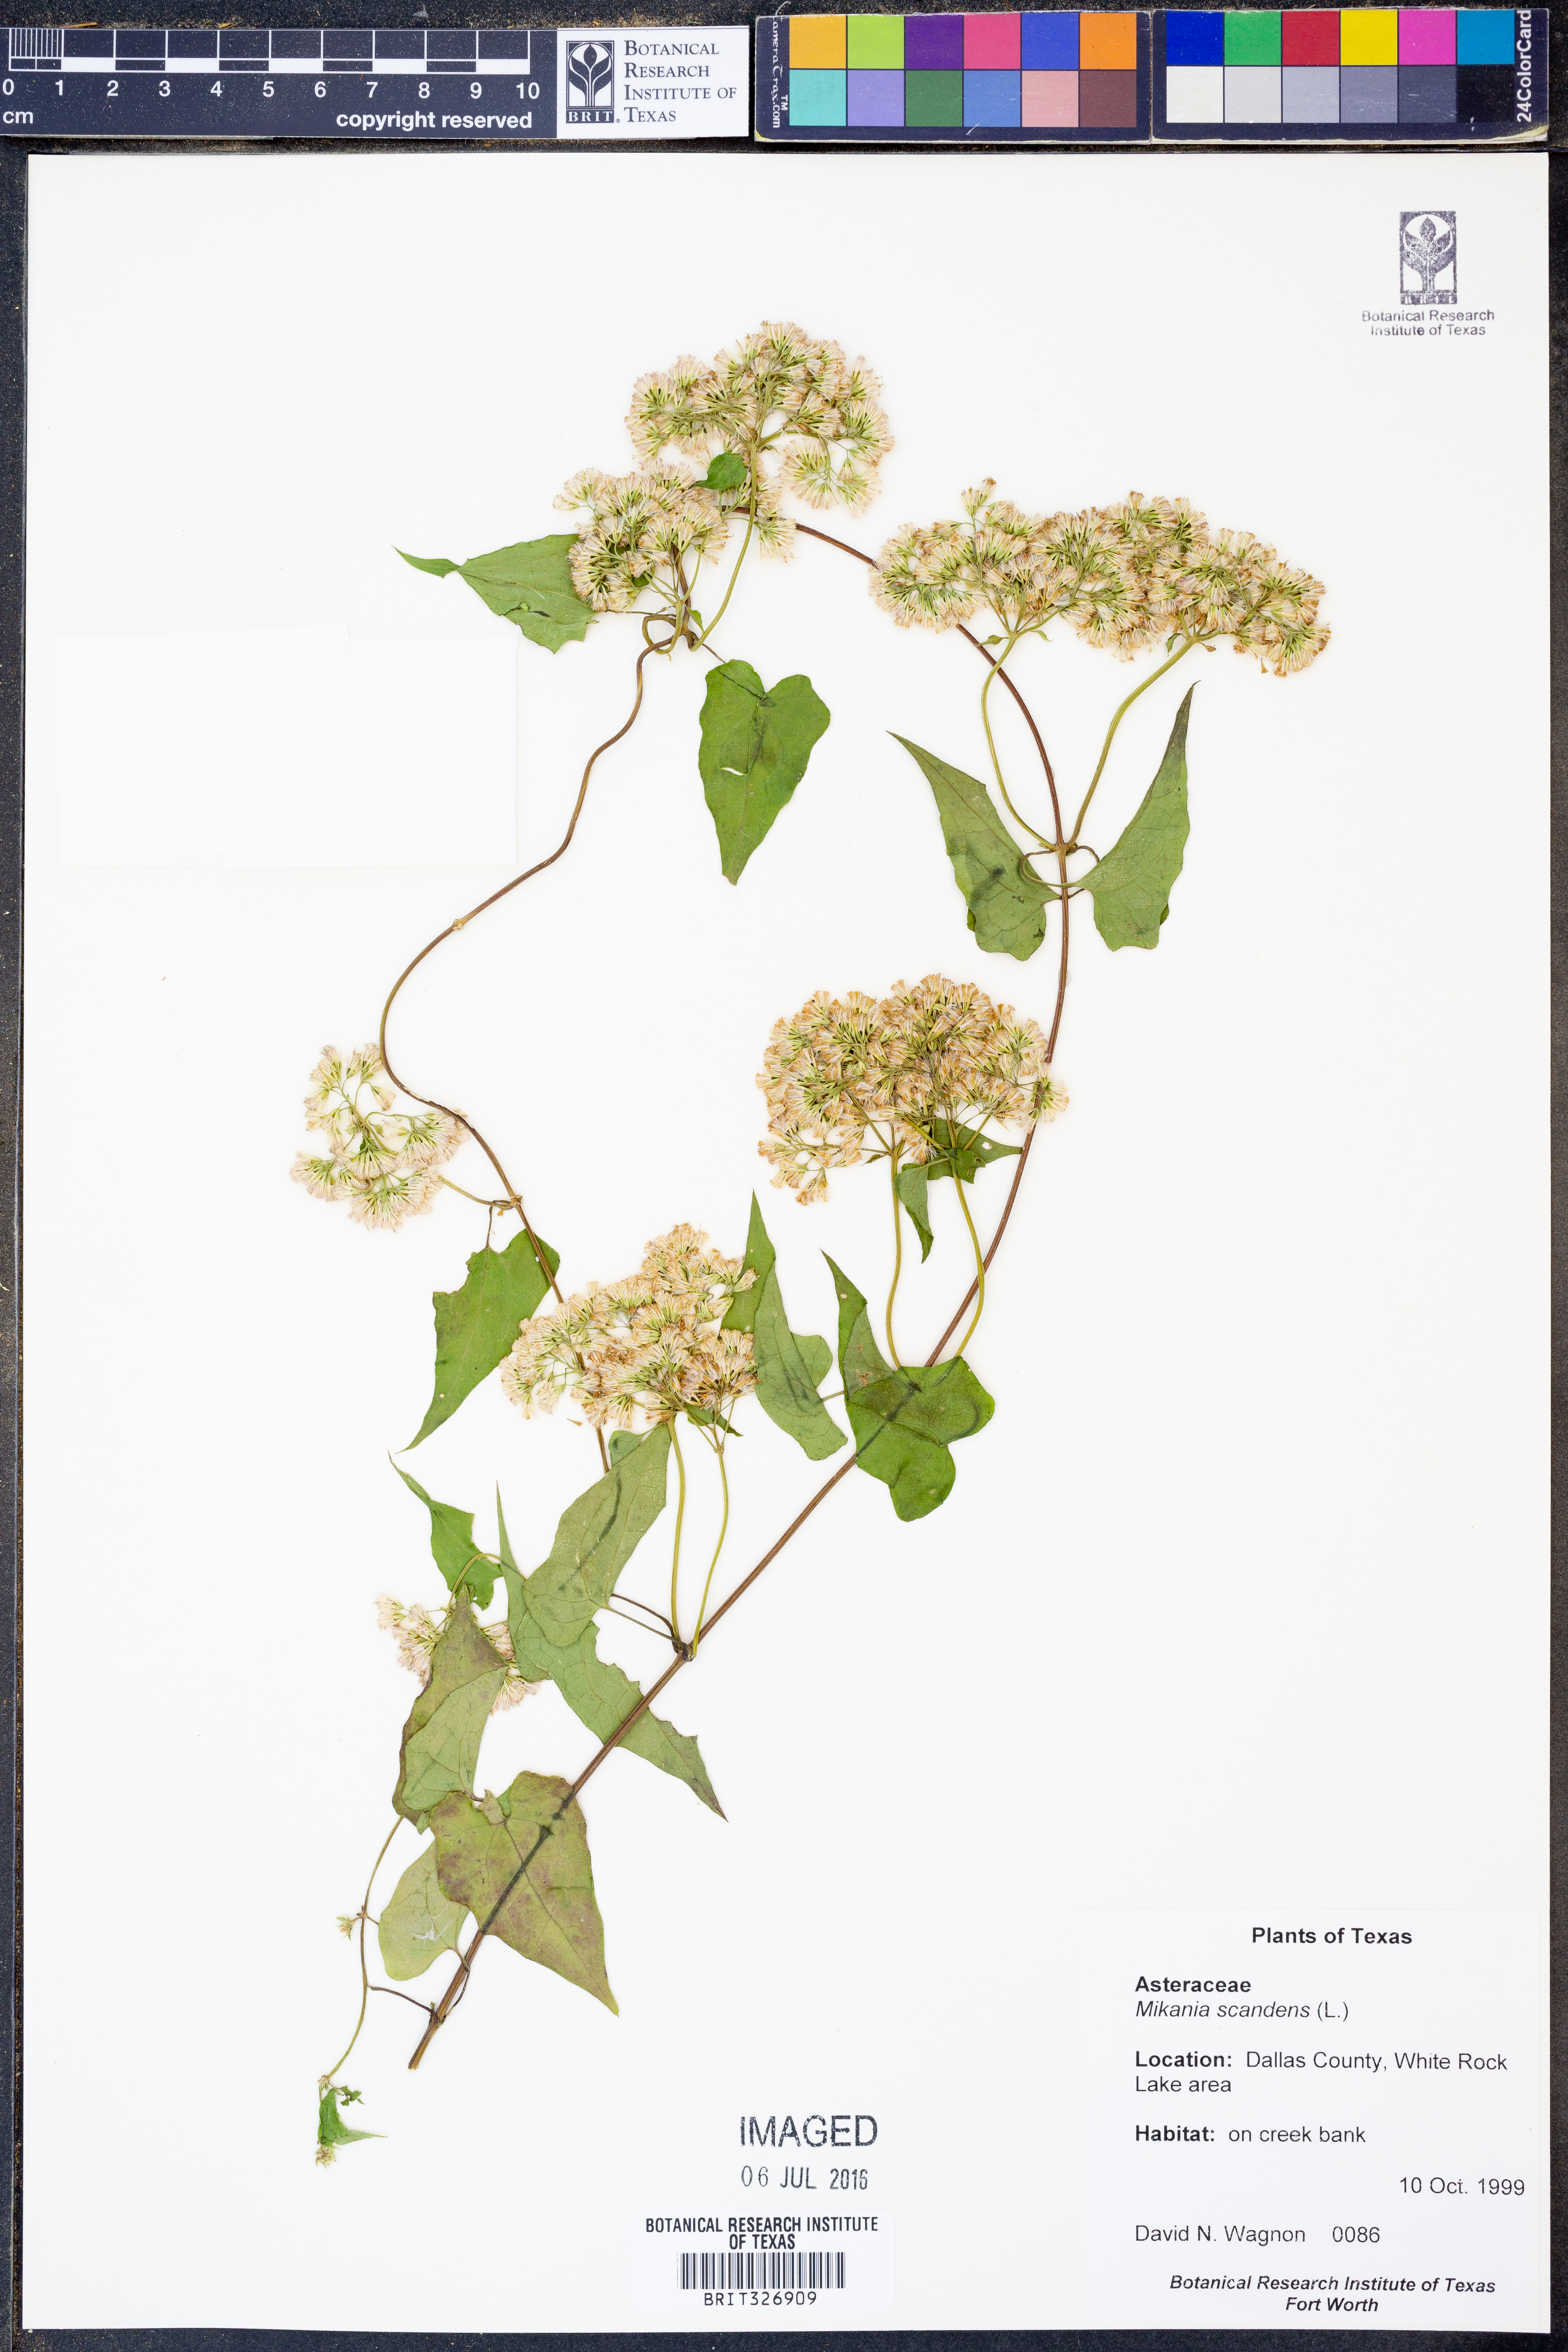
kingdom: Plantae
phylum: Tracheophyta
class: Magnoliopsida
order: Asterales
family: Asteraceae
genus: Mikania
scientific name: Mikania scandens
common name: Climbing hempvine
